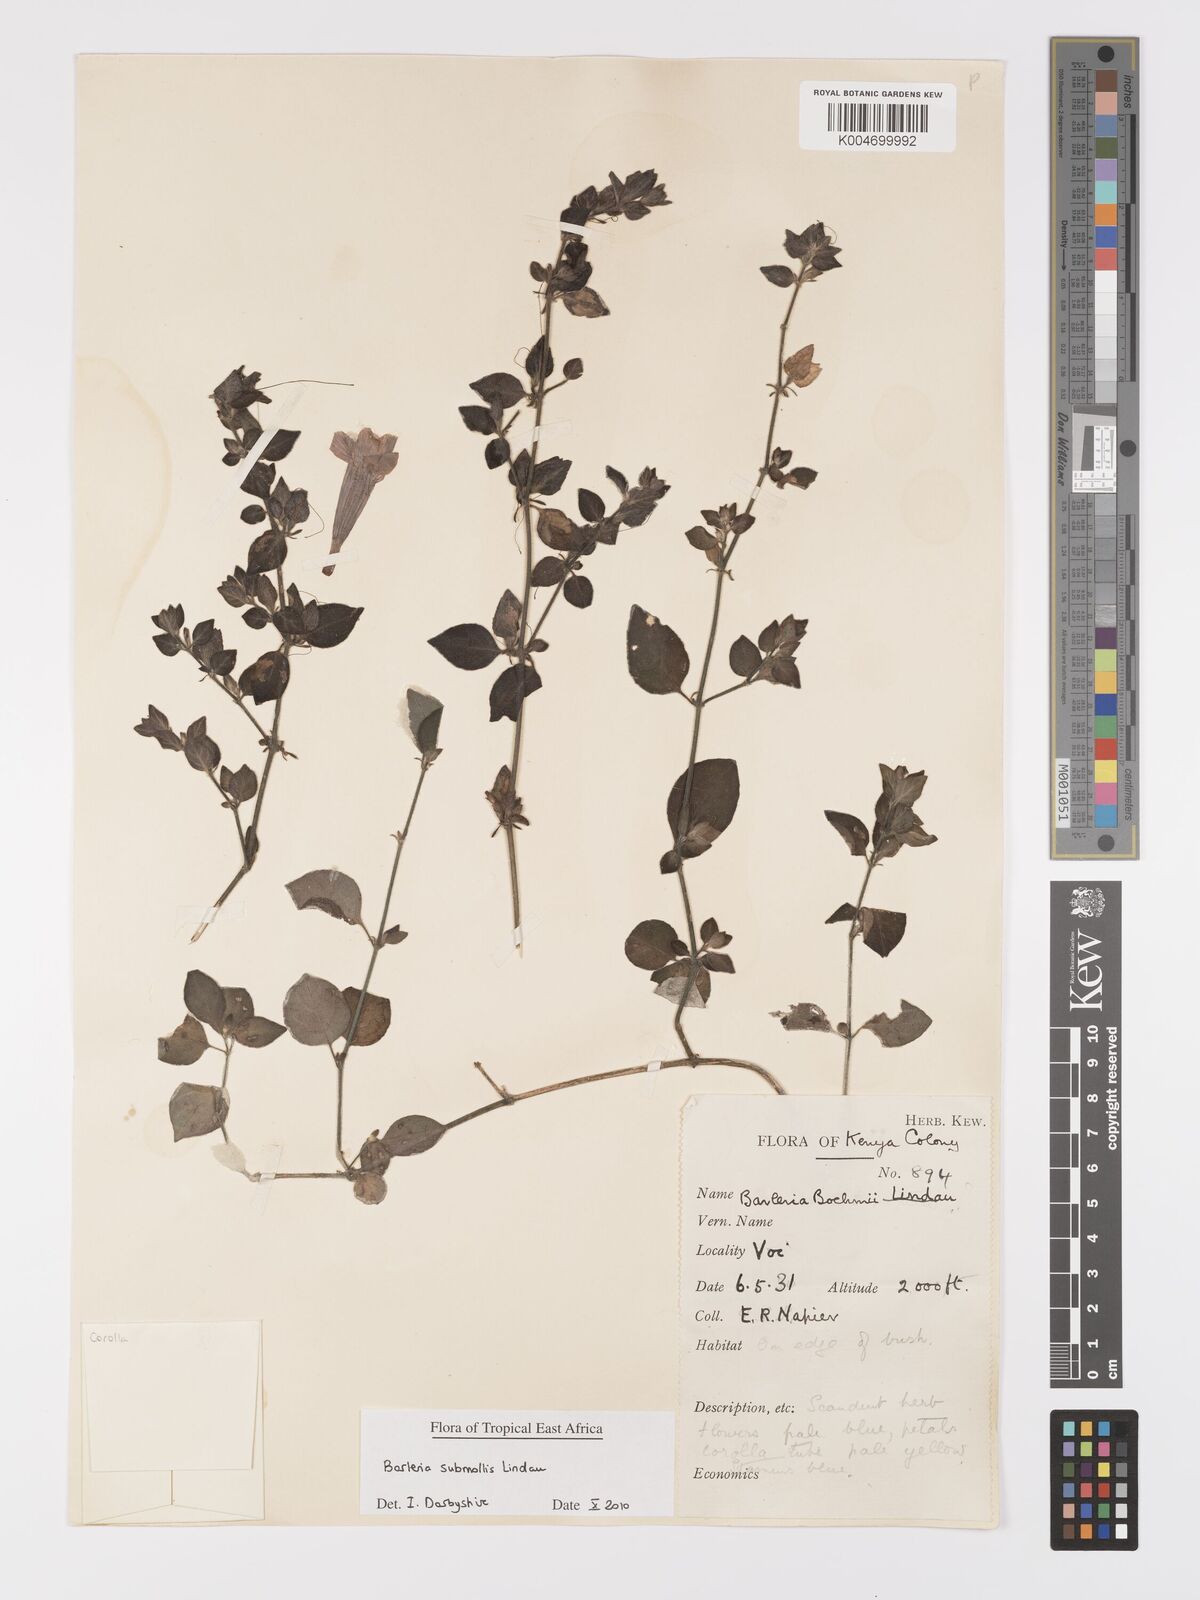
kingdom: Plantae
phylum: Tracheophyta
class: Magnoliopsida
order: Lamiales
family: Acanthaceae
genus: Barleria
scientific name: Barleria submollis
